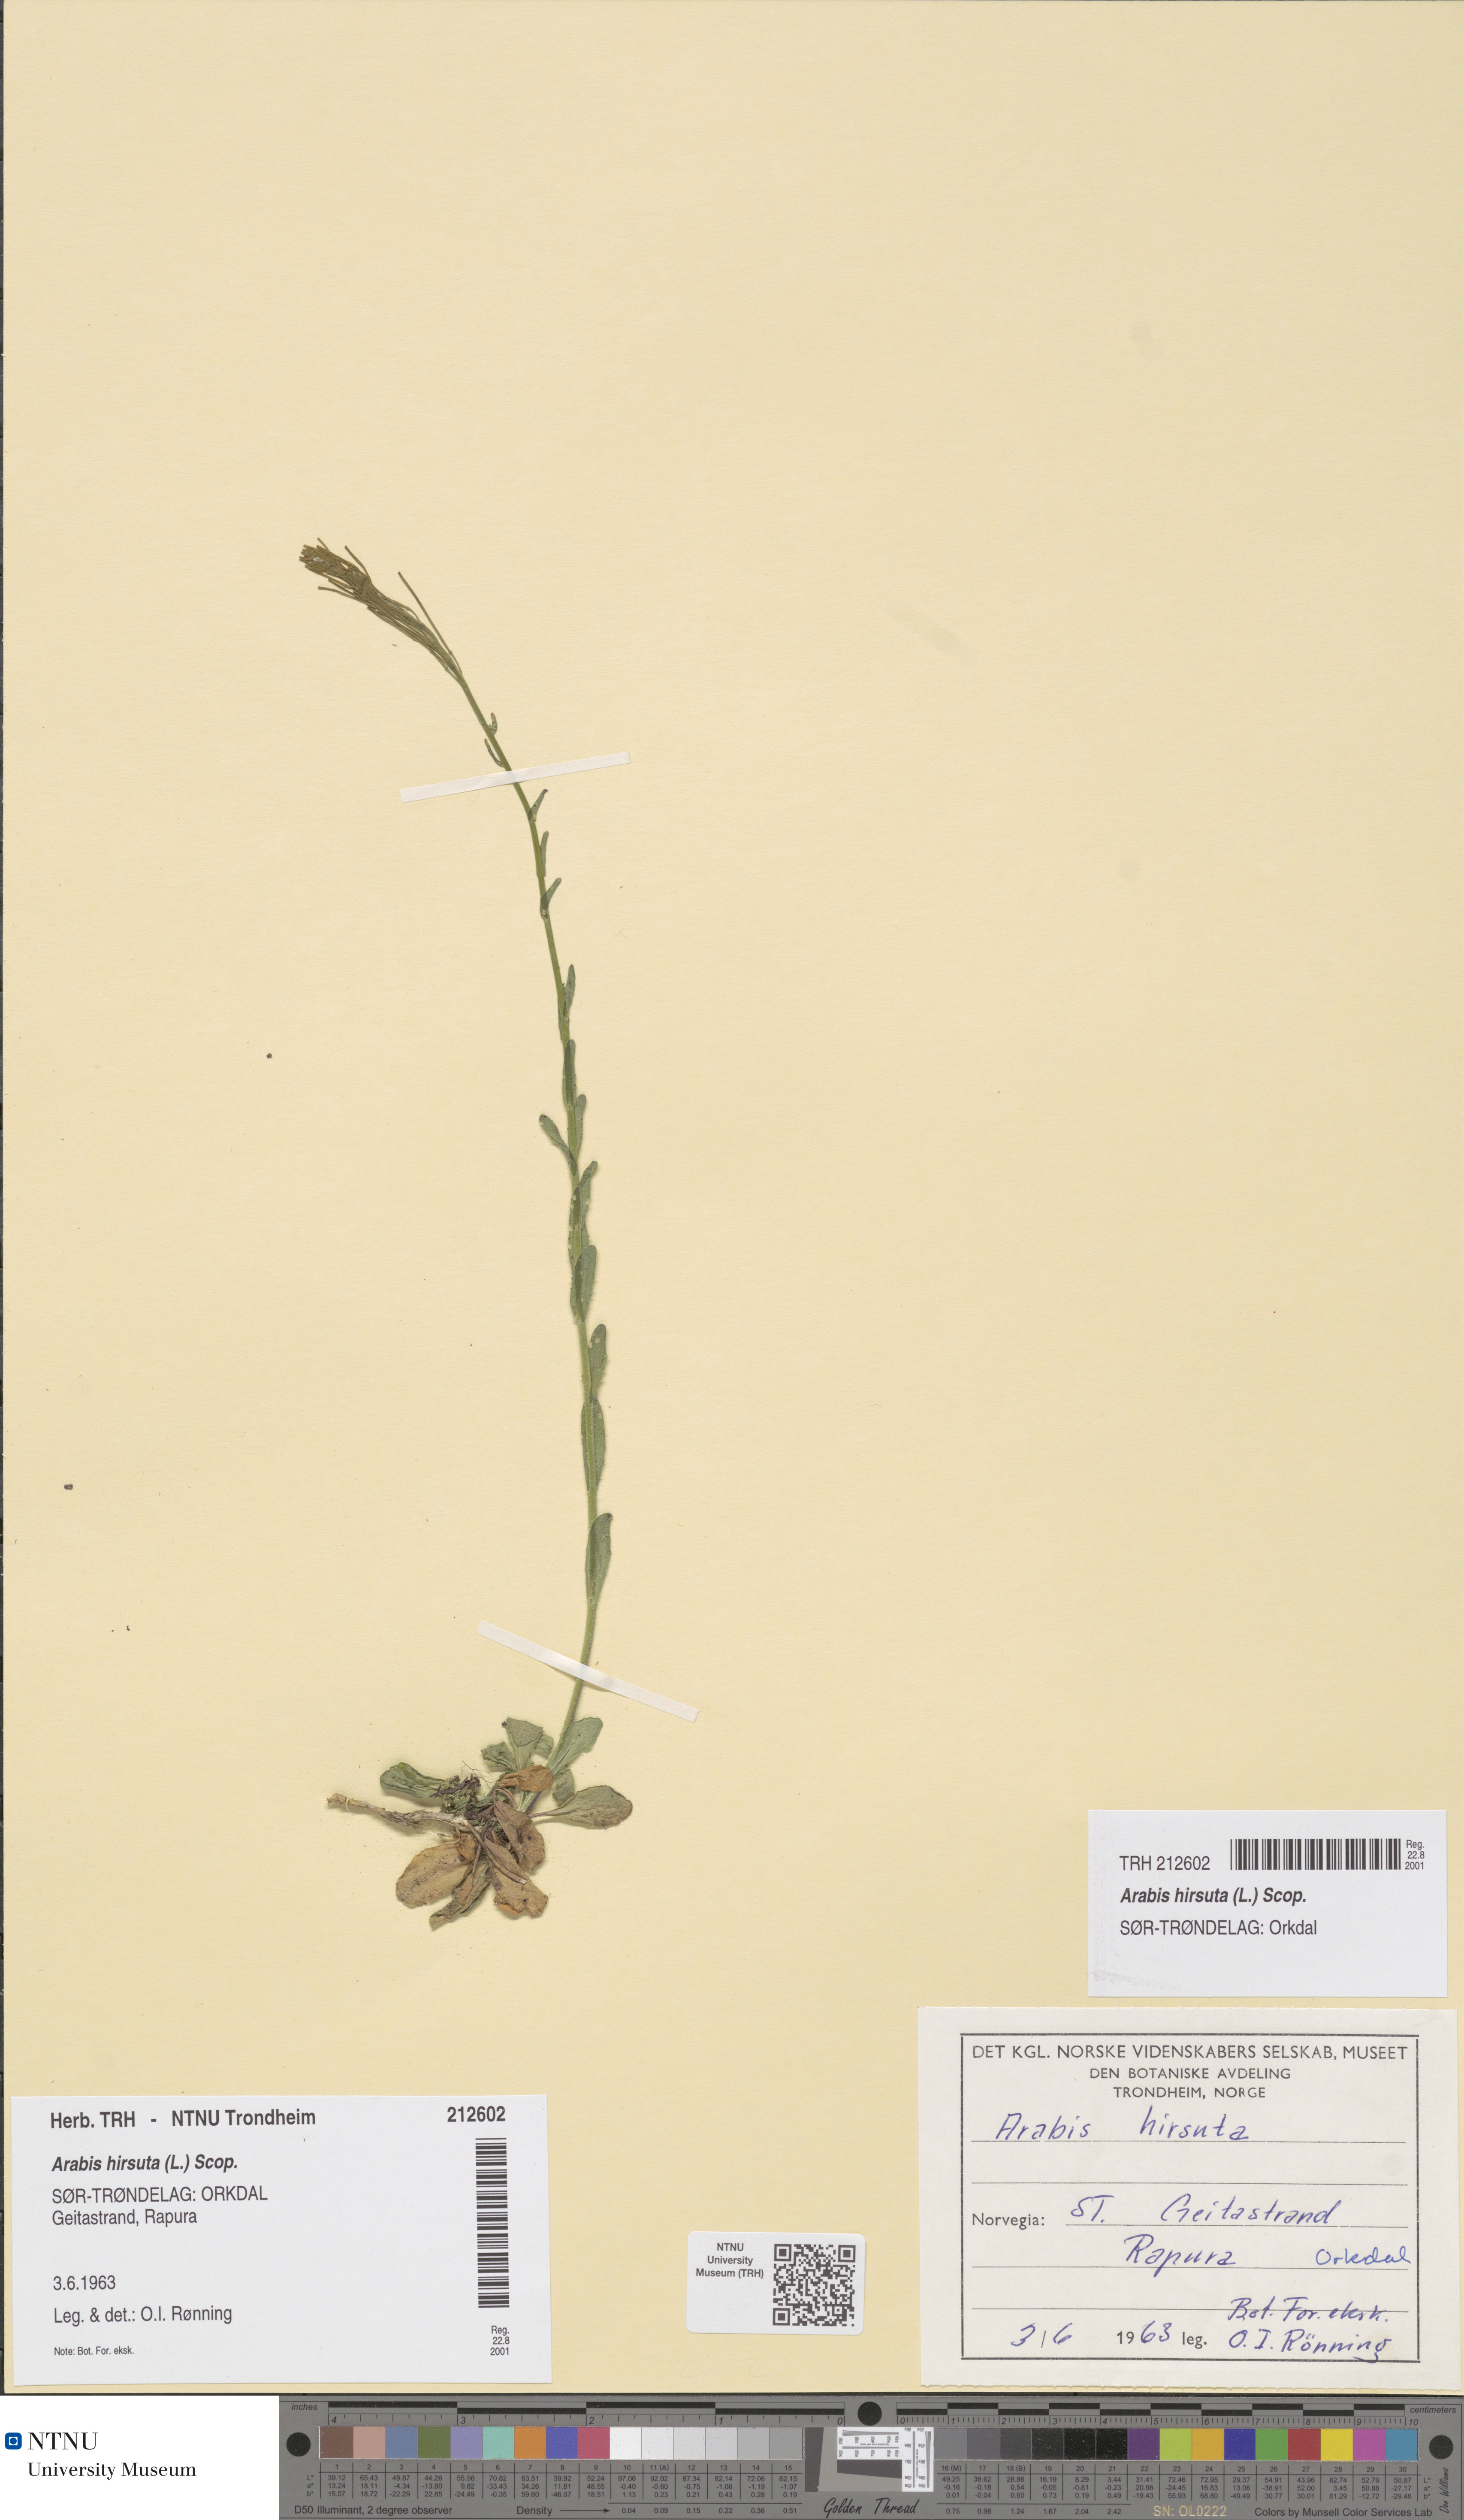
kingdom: Plantae
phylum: Tracheophyta
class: Magnoliopsida
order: Brassicales
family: Brassicaceae
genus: Arabis
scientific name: Arabis hirsuta
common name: Hairy rock-cress
